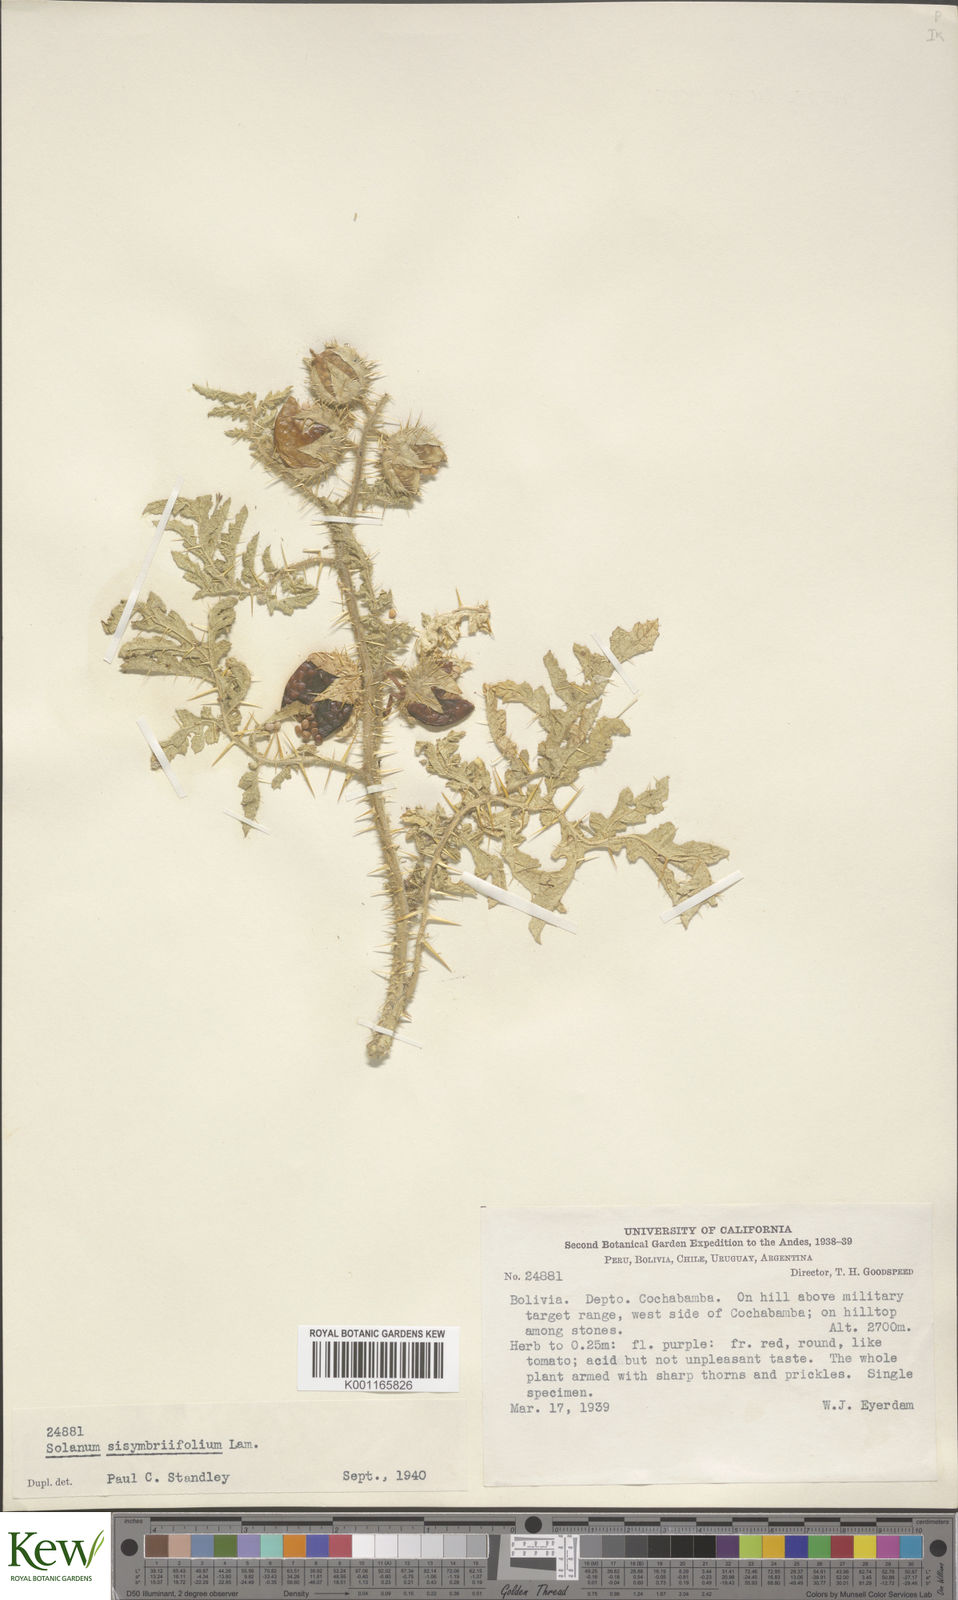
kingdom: Plantae
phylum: Tracheophyta
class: Magnoliopsida
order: Solanales
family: Solanaceae
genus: Solanum
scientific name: Solanum sisymbriifolium
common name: Red buffalo-bur
